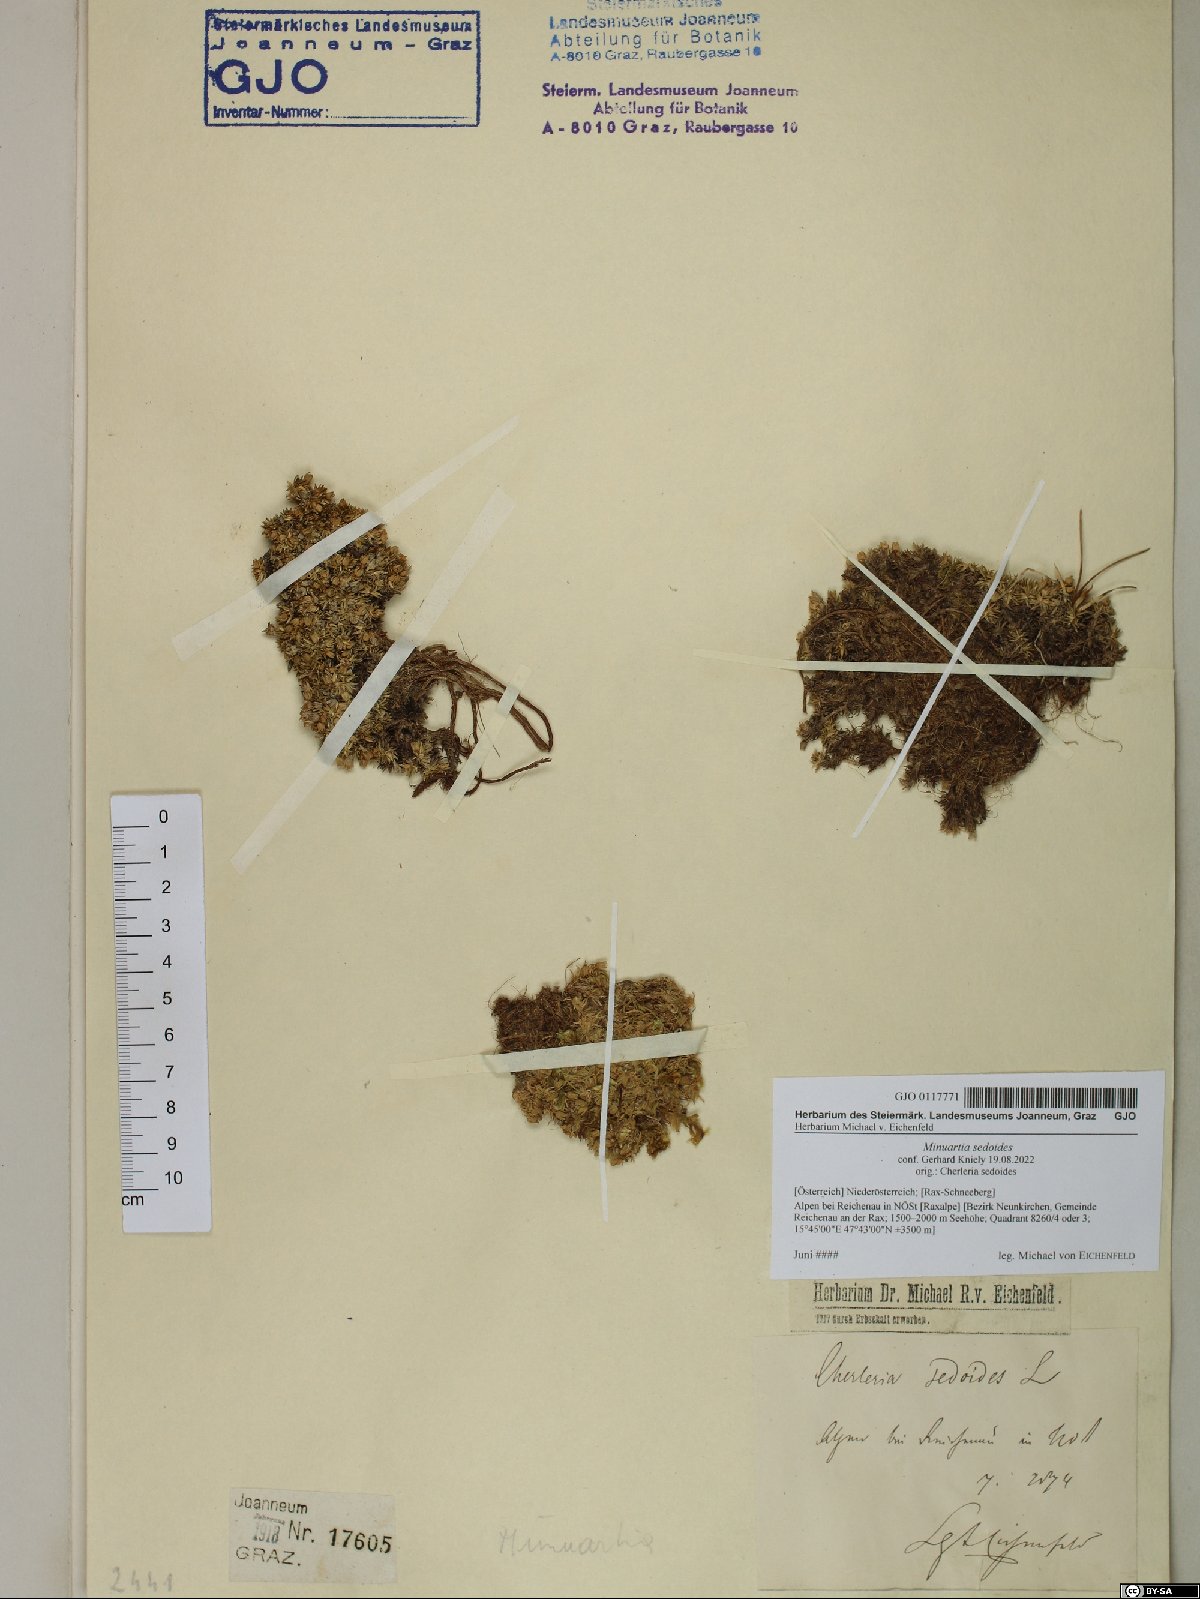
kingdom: Plantae
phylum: Tracheophyta
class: Magnoliopsida
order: Caryophyllales
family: Caryophyllaceae
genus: Cherleria
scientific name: Cherleria sedoides
